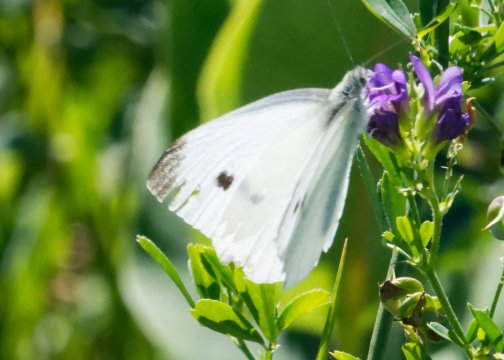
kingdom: Animalia
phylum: Arthropoda
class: Insecta
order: Lepidoptera
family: Pieridae
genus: Pieris
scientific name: Pieris rapae
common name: Cabbage White
